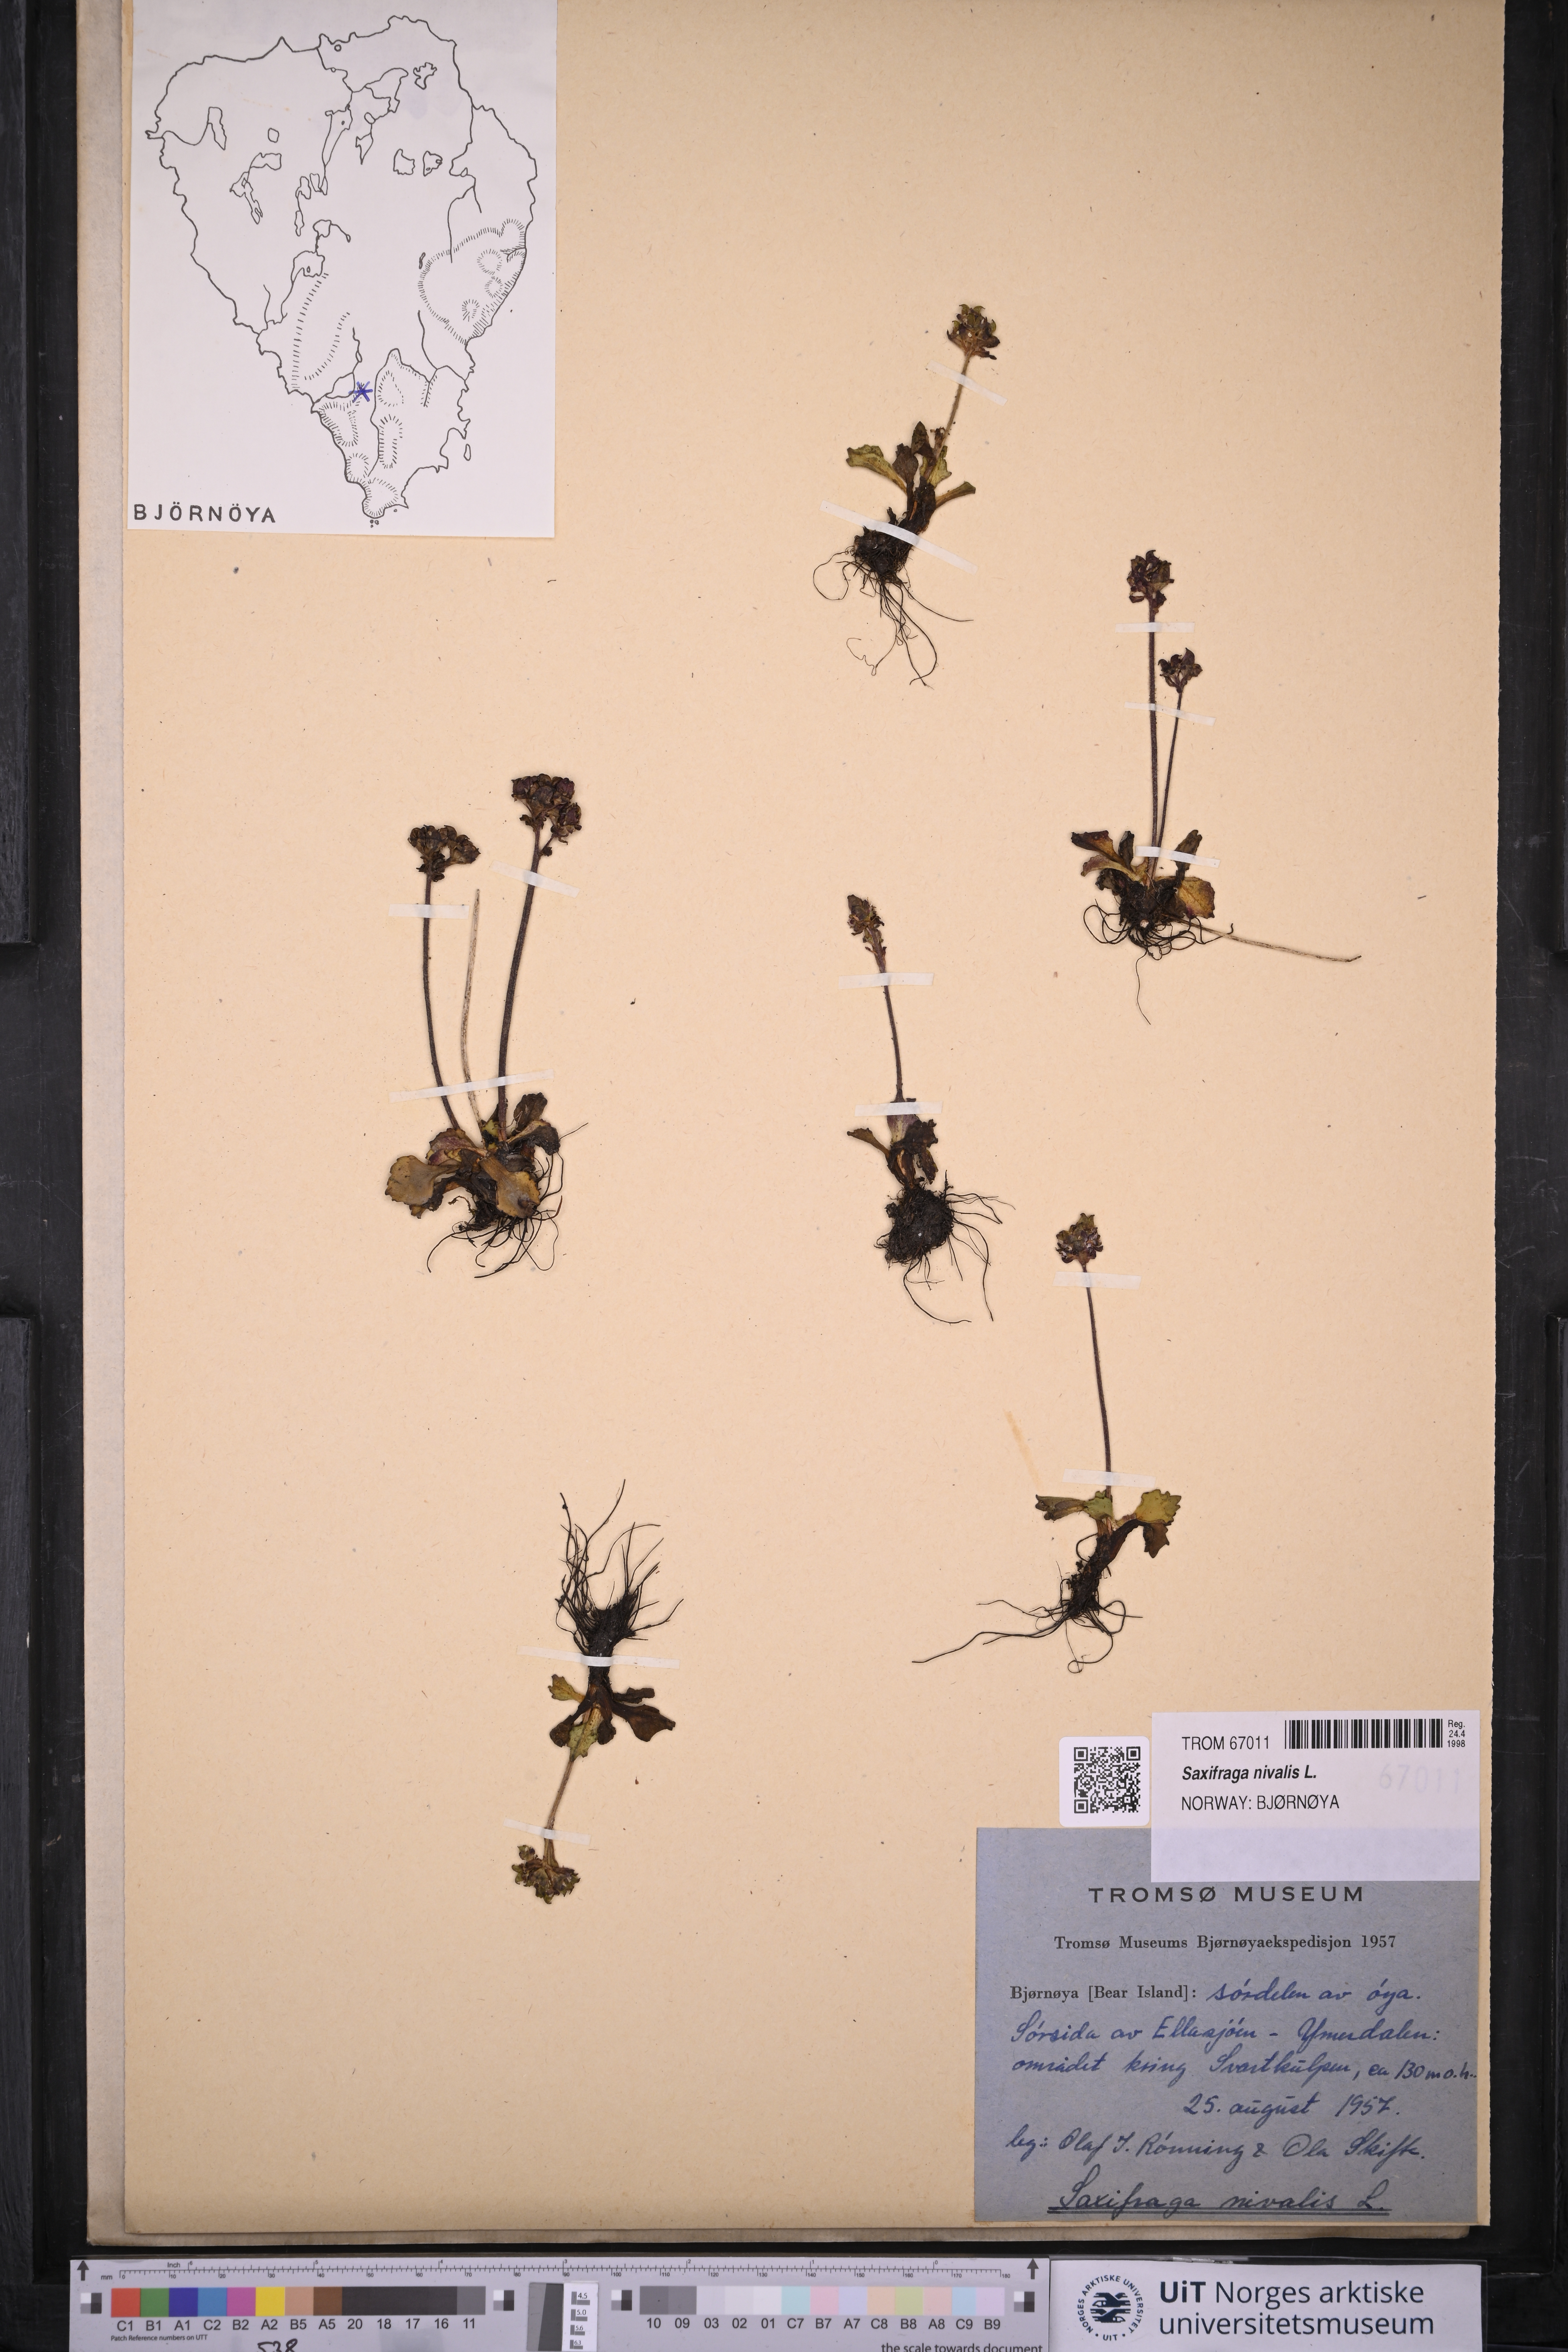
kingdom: Plantae
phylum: Tracheophyta
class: Magnoliopsida
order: Saxifragales
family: Saxifragaceae
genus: Micranthes
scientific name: Micranthes nivalis
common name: Alpine saxifrage
